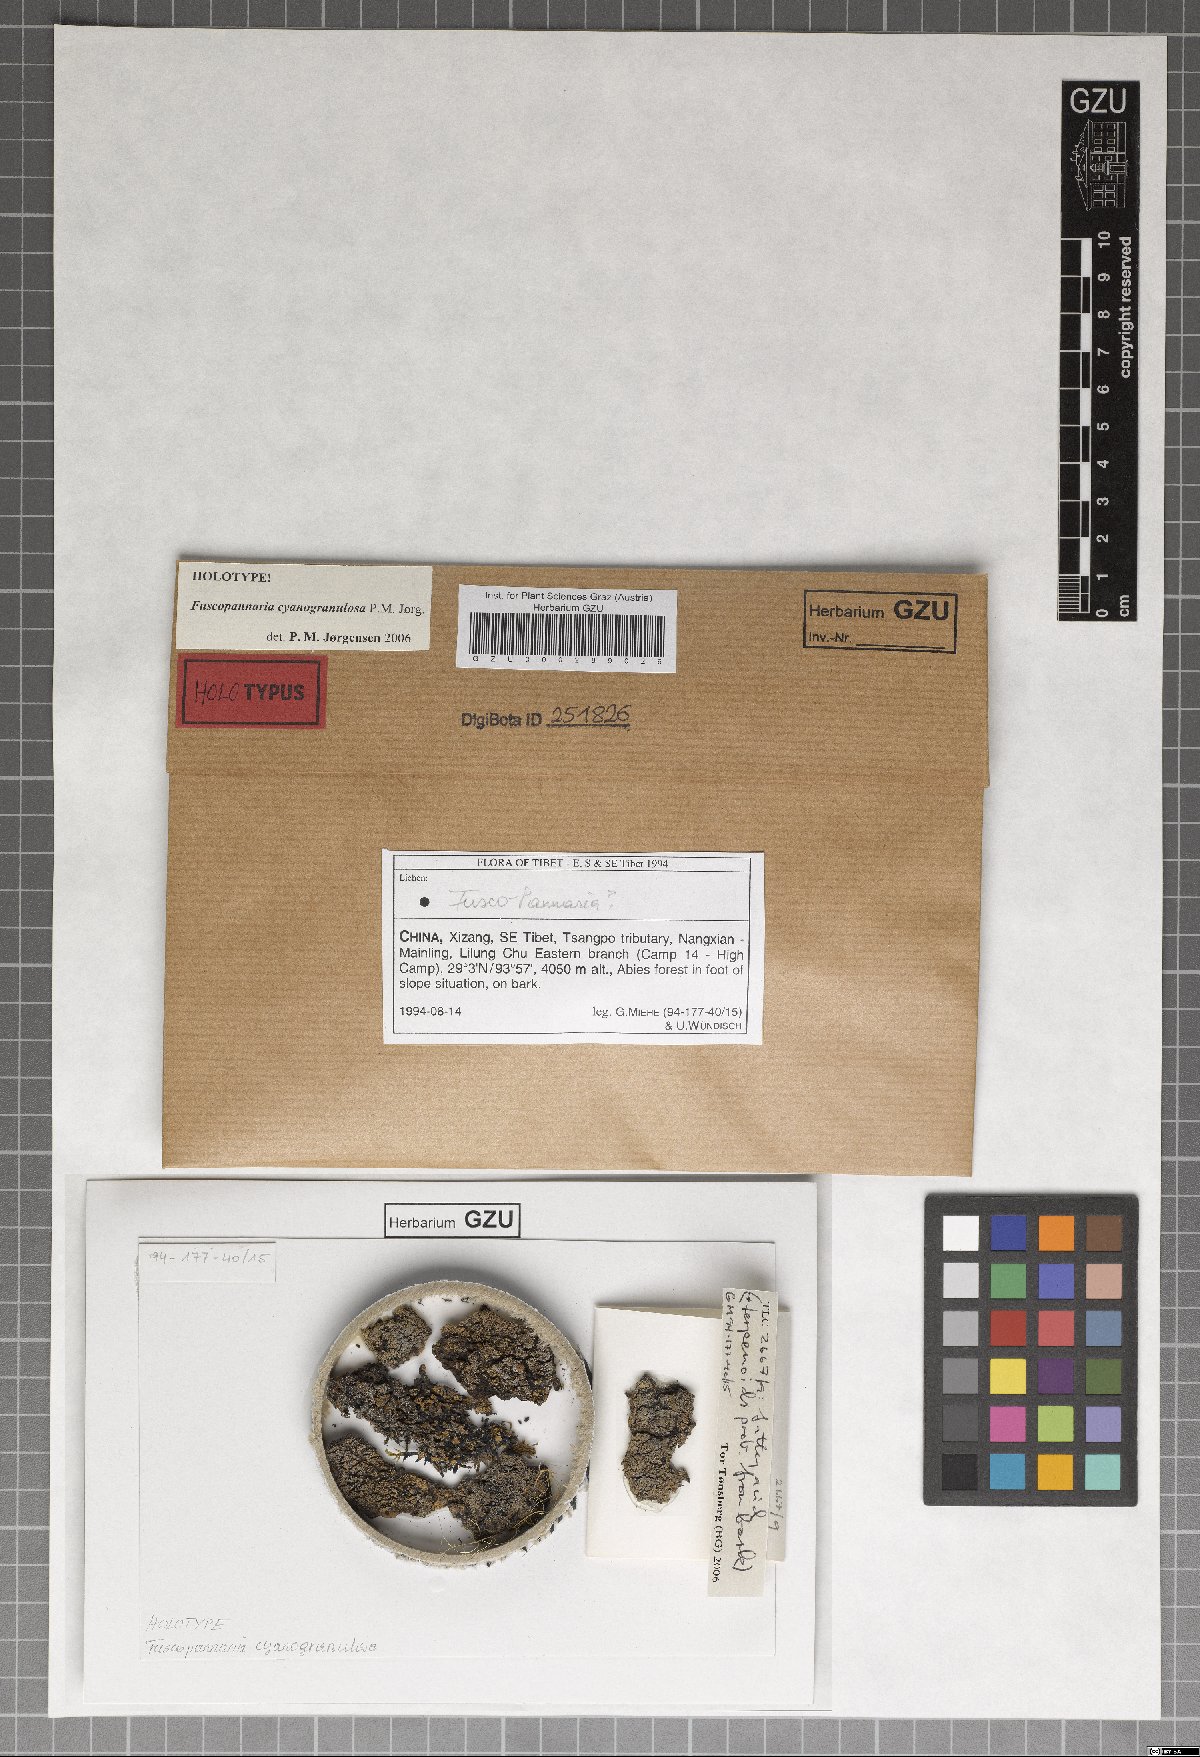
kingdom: Fungi
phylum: Ascomycota
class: Lecanoromycetes
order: Peltigerales
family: Pannariaceae
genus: Fuscopannaria
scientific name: Fuscopannaria cyanogranulata
